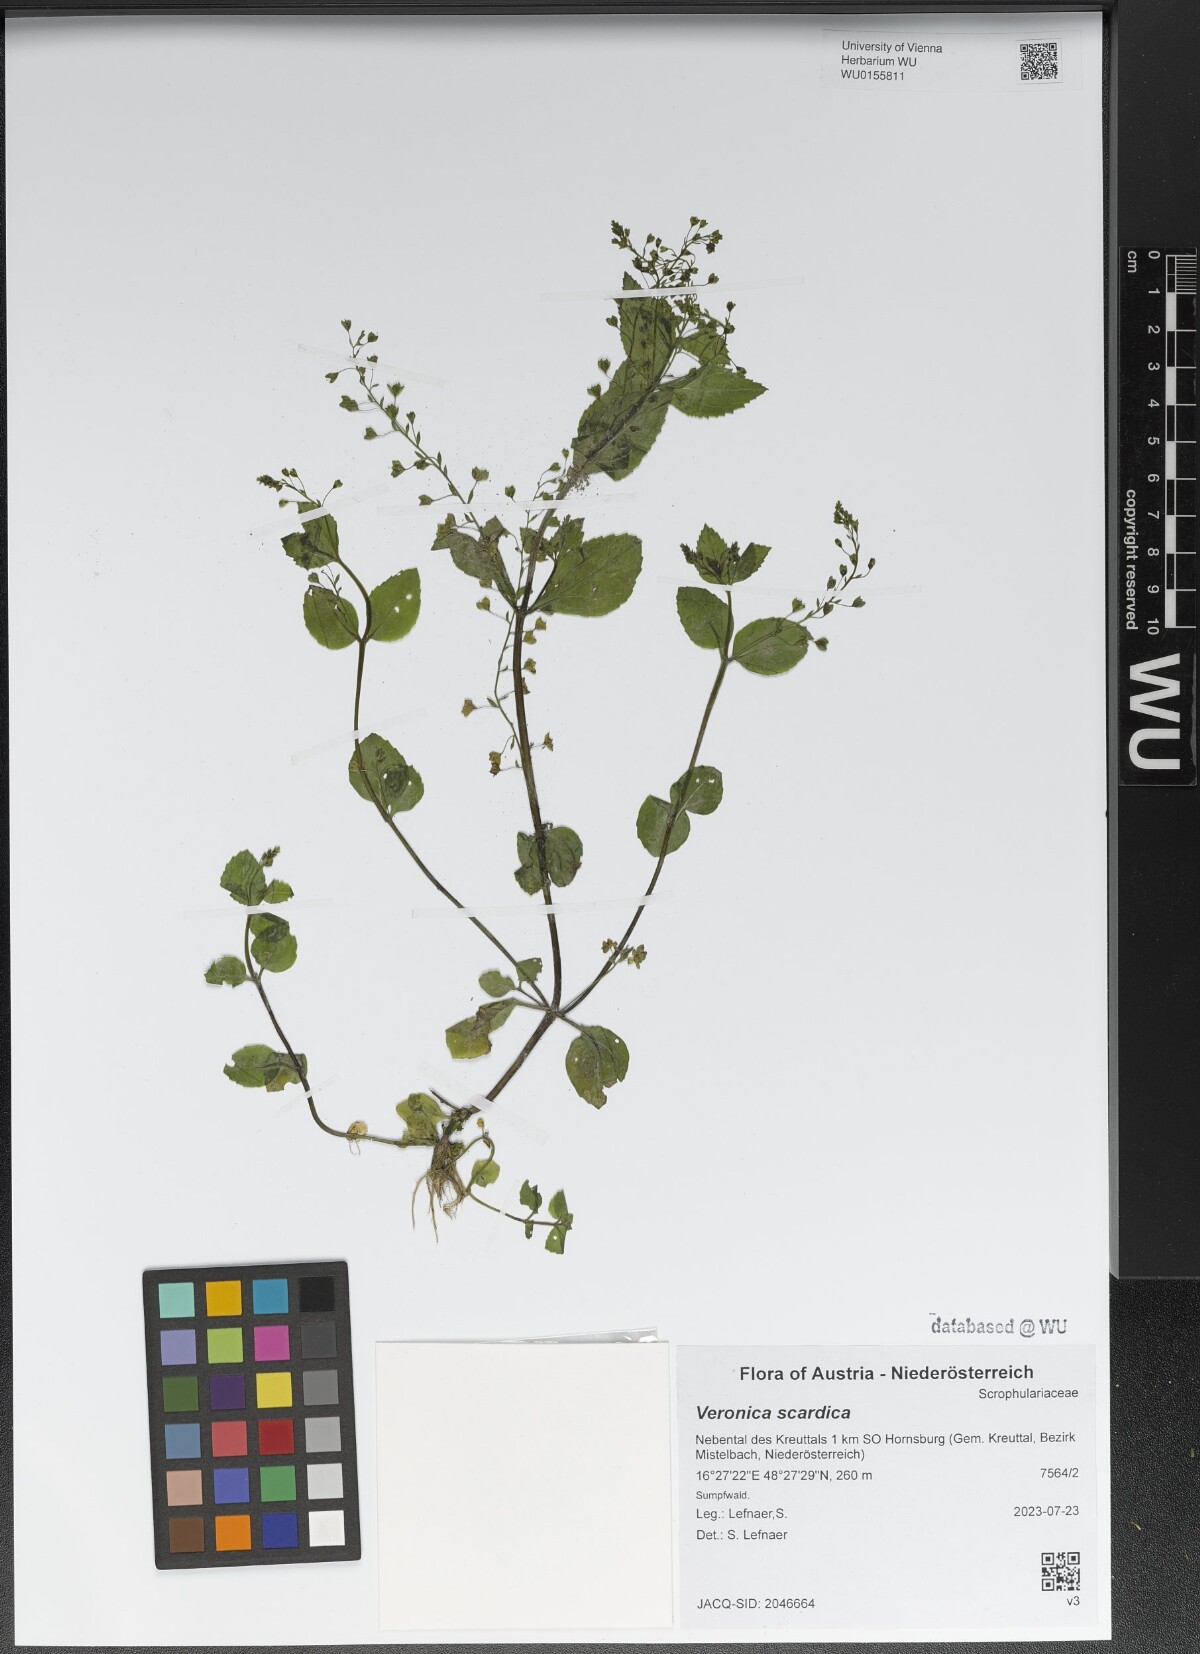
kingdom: Plantae
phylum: Tracheophyta
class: Magnoliopsida
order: Lamiales
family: Plantaginaceae
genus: Veronica
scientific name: Veronica scardica
